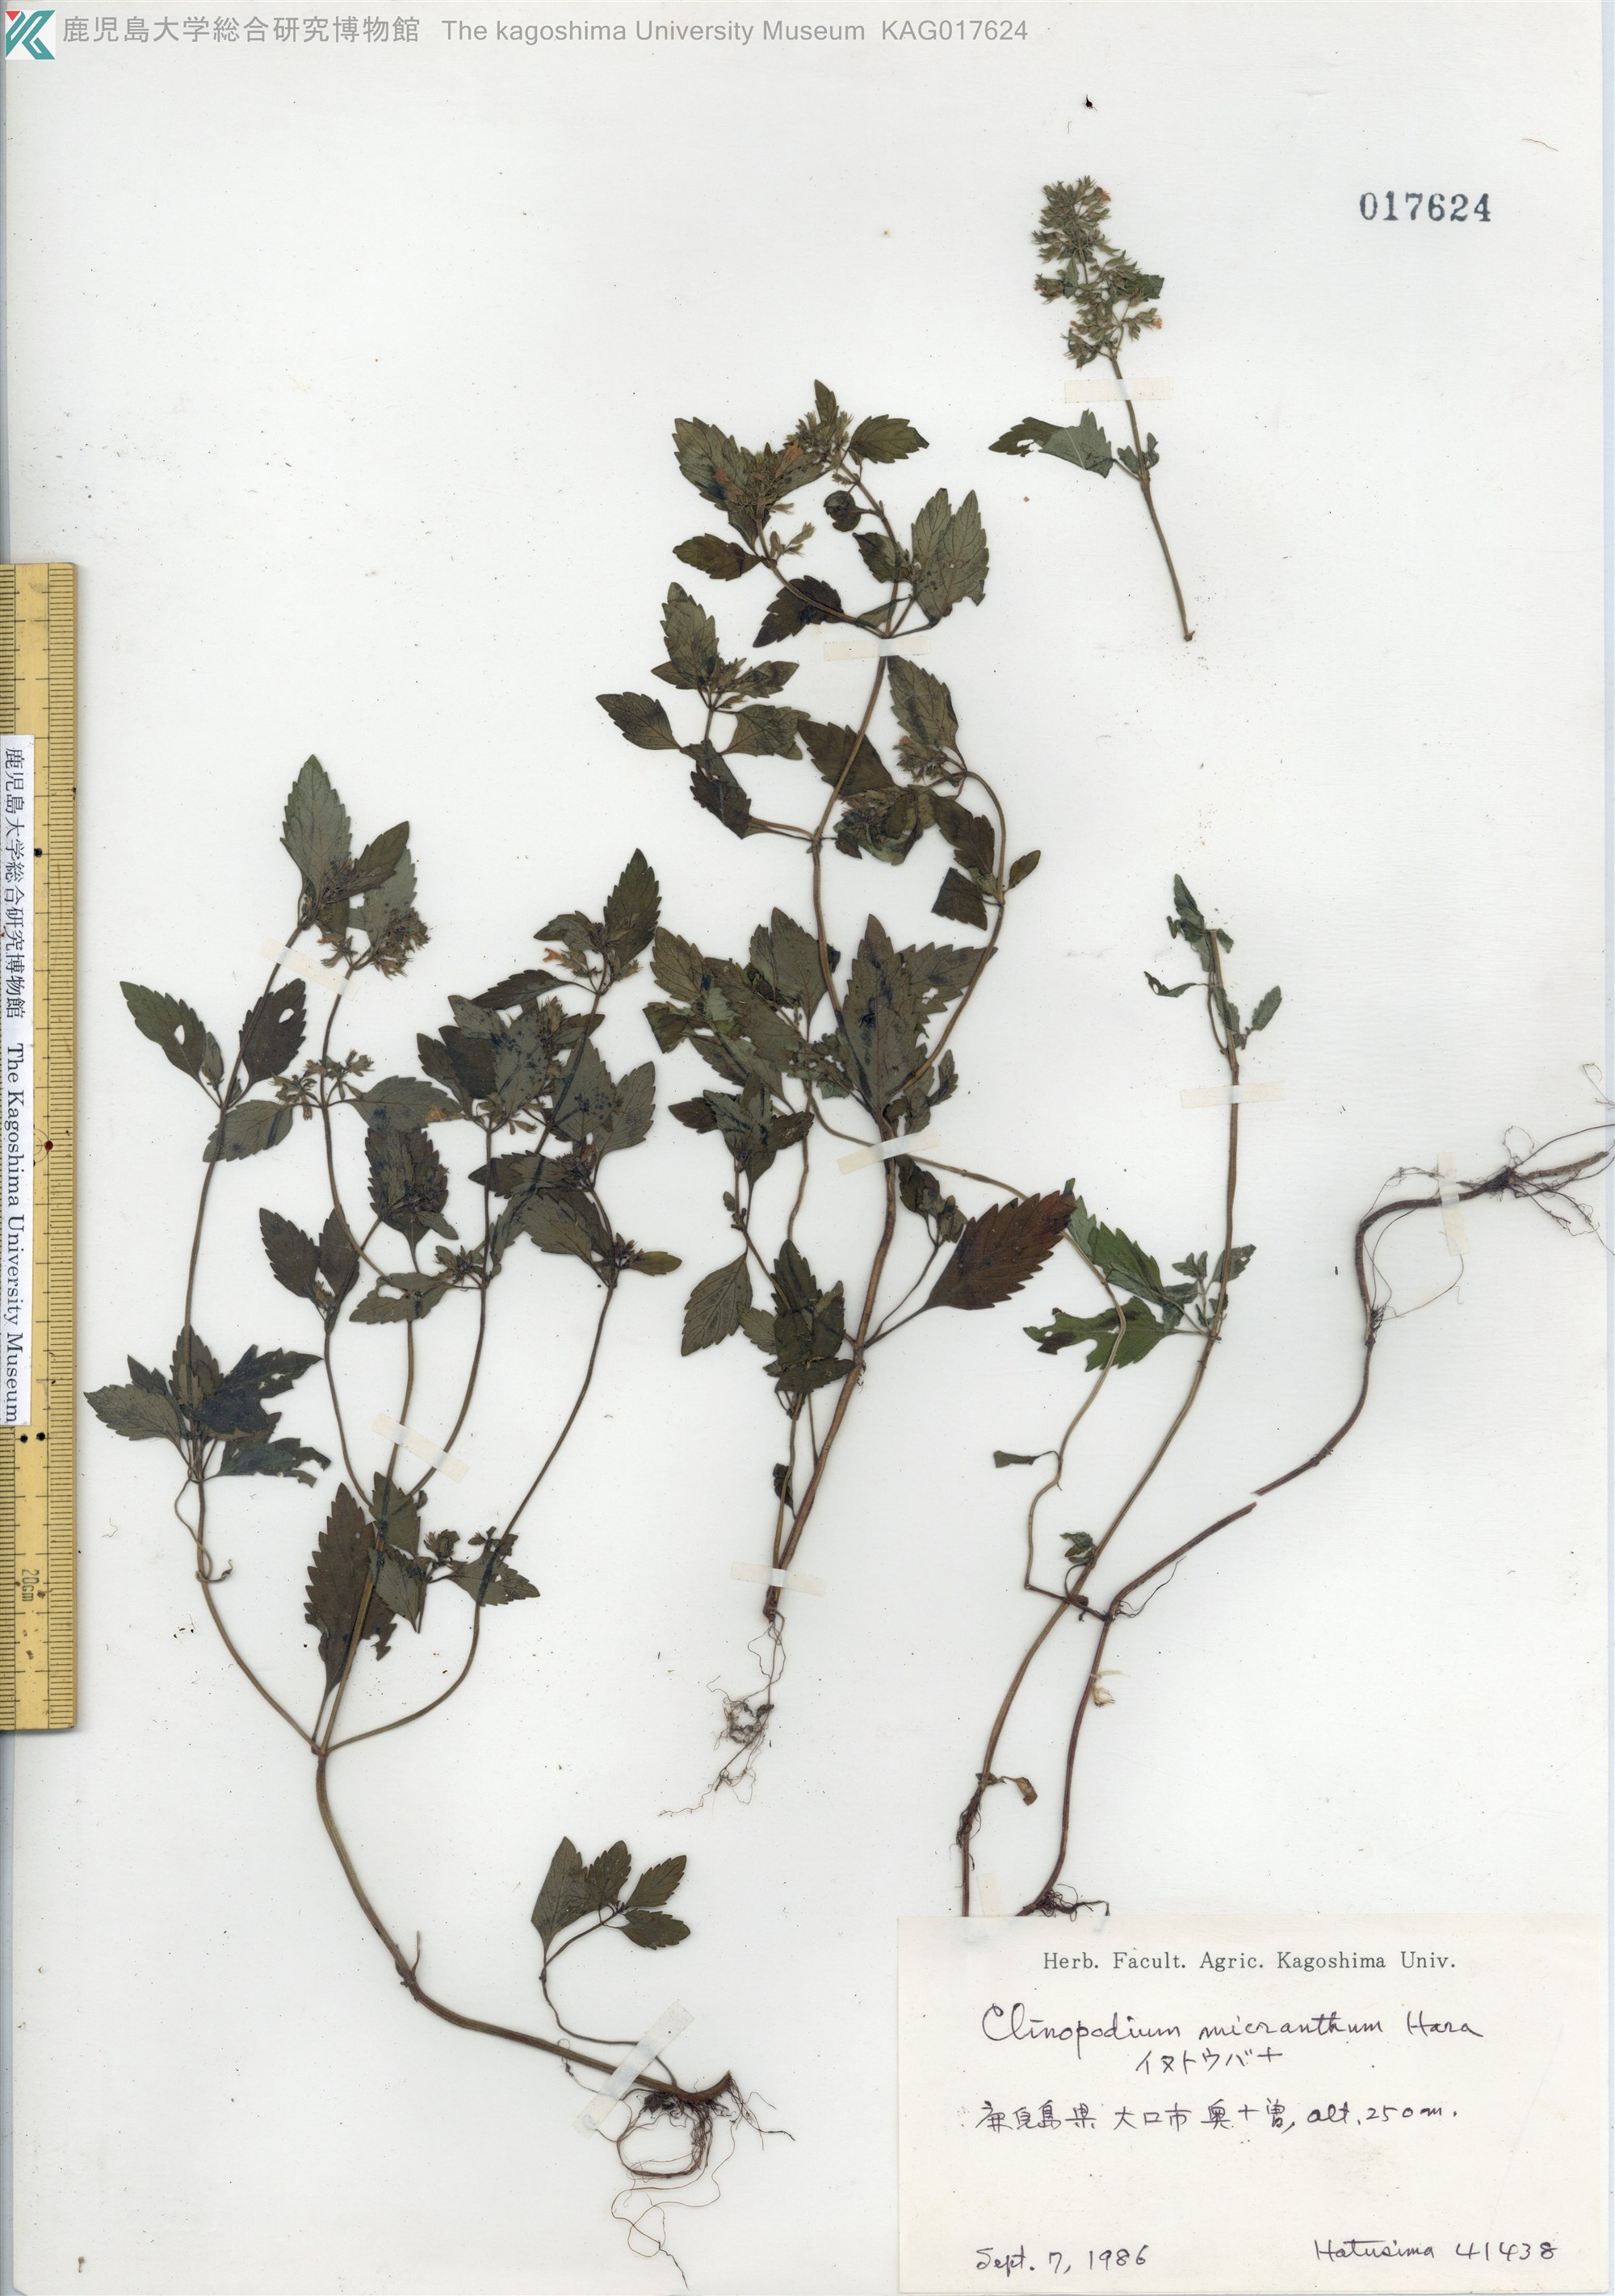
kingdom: Plantae
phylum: Tracheophyta
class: Magnoliopsida
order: Lamiales
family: Lamiaceae
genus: Clinopodium
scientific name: Clinopodium micranthum
